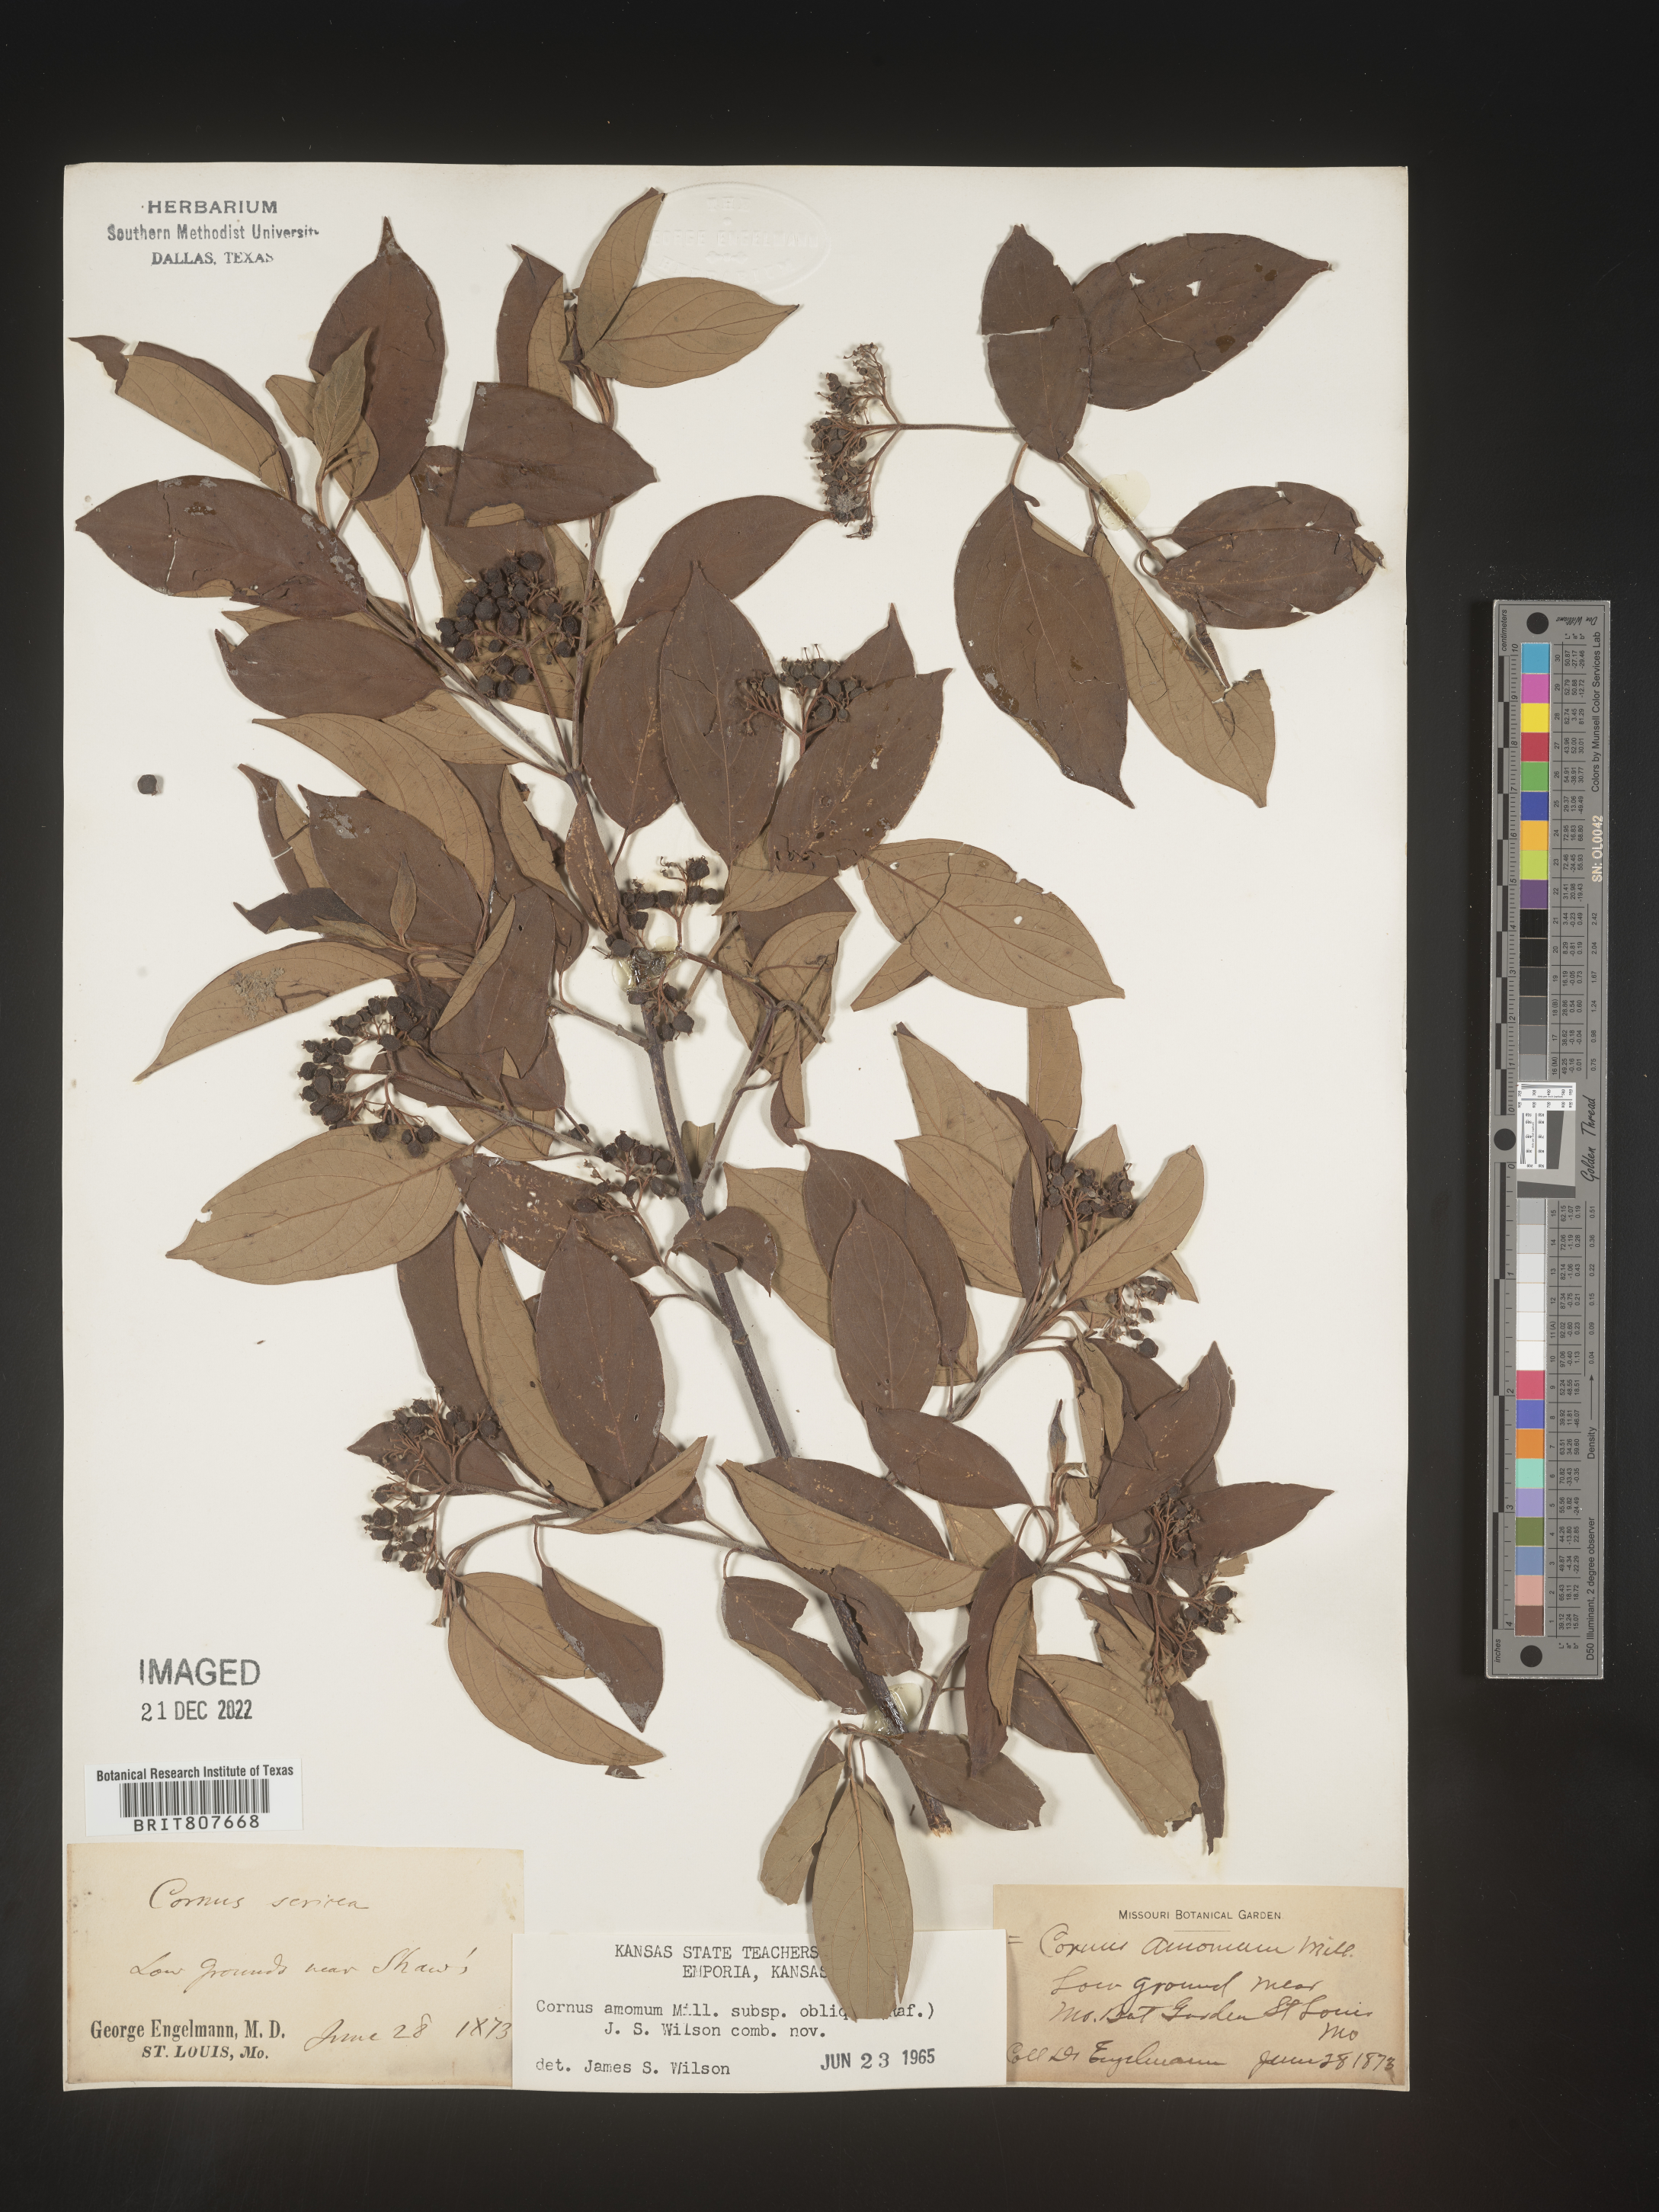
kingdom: Plantae
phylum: Tracheophyta
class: Magnoliopsida
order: Cornales
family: Cornaceae
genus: Cornus
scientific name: Cornus obliqua
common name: Pale dogwood
